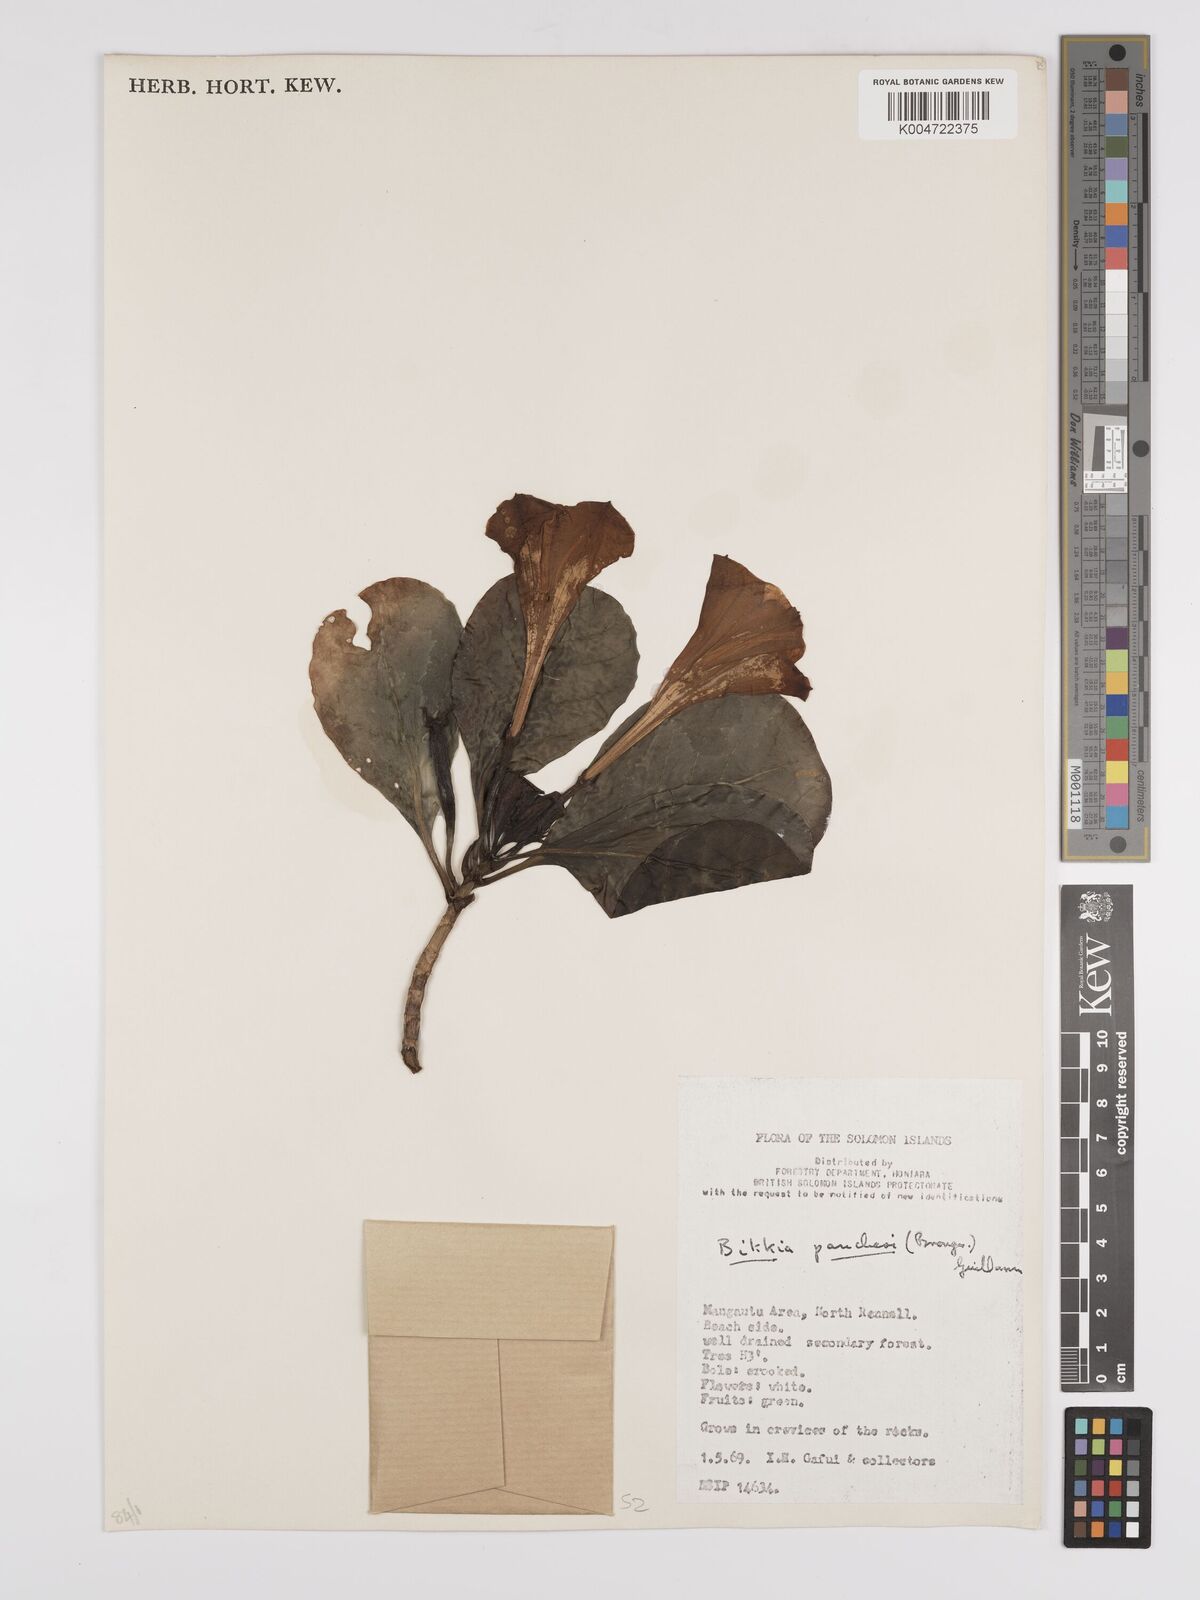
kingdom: Plantae
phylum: Tracheophyta
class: Magnoliopsida
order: Gentianales
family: Rubiaceae
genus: Bikkia
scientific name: Bikkia
